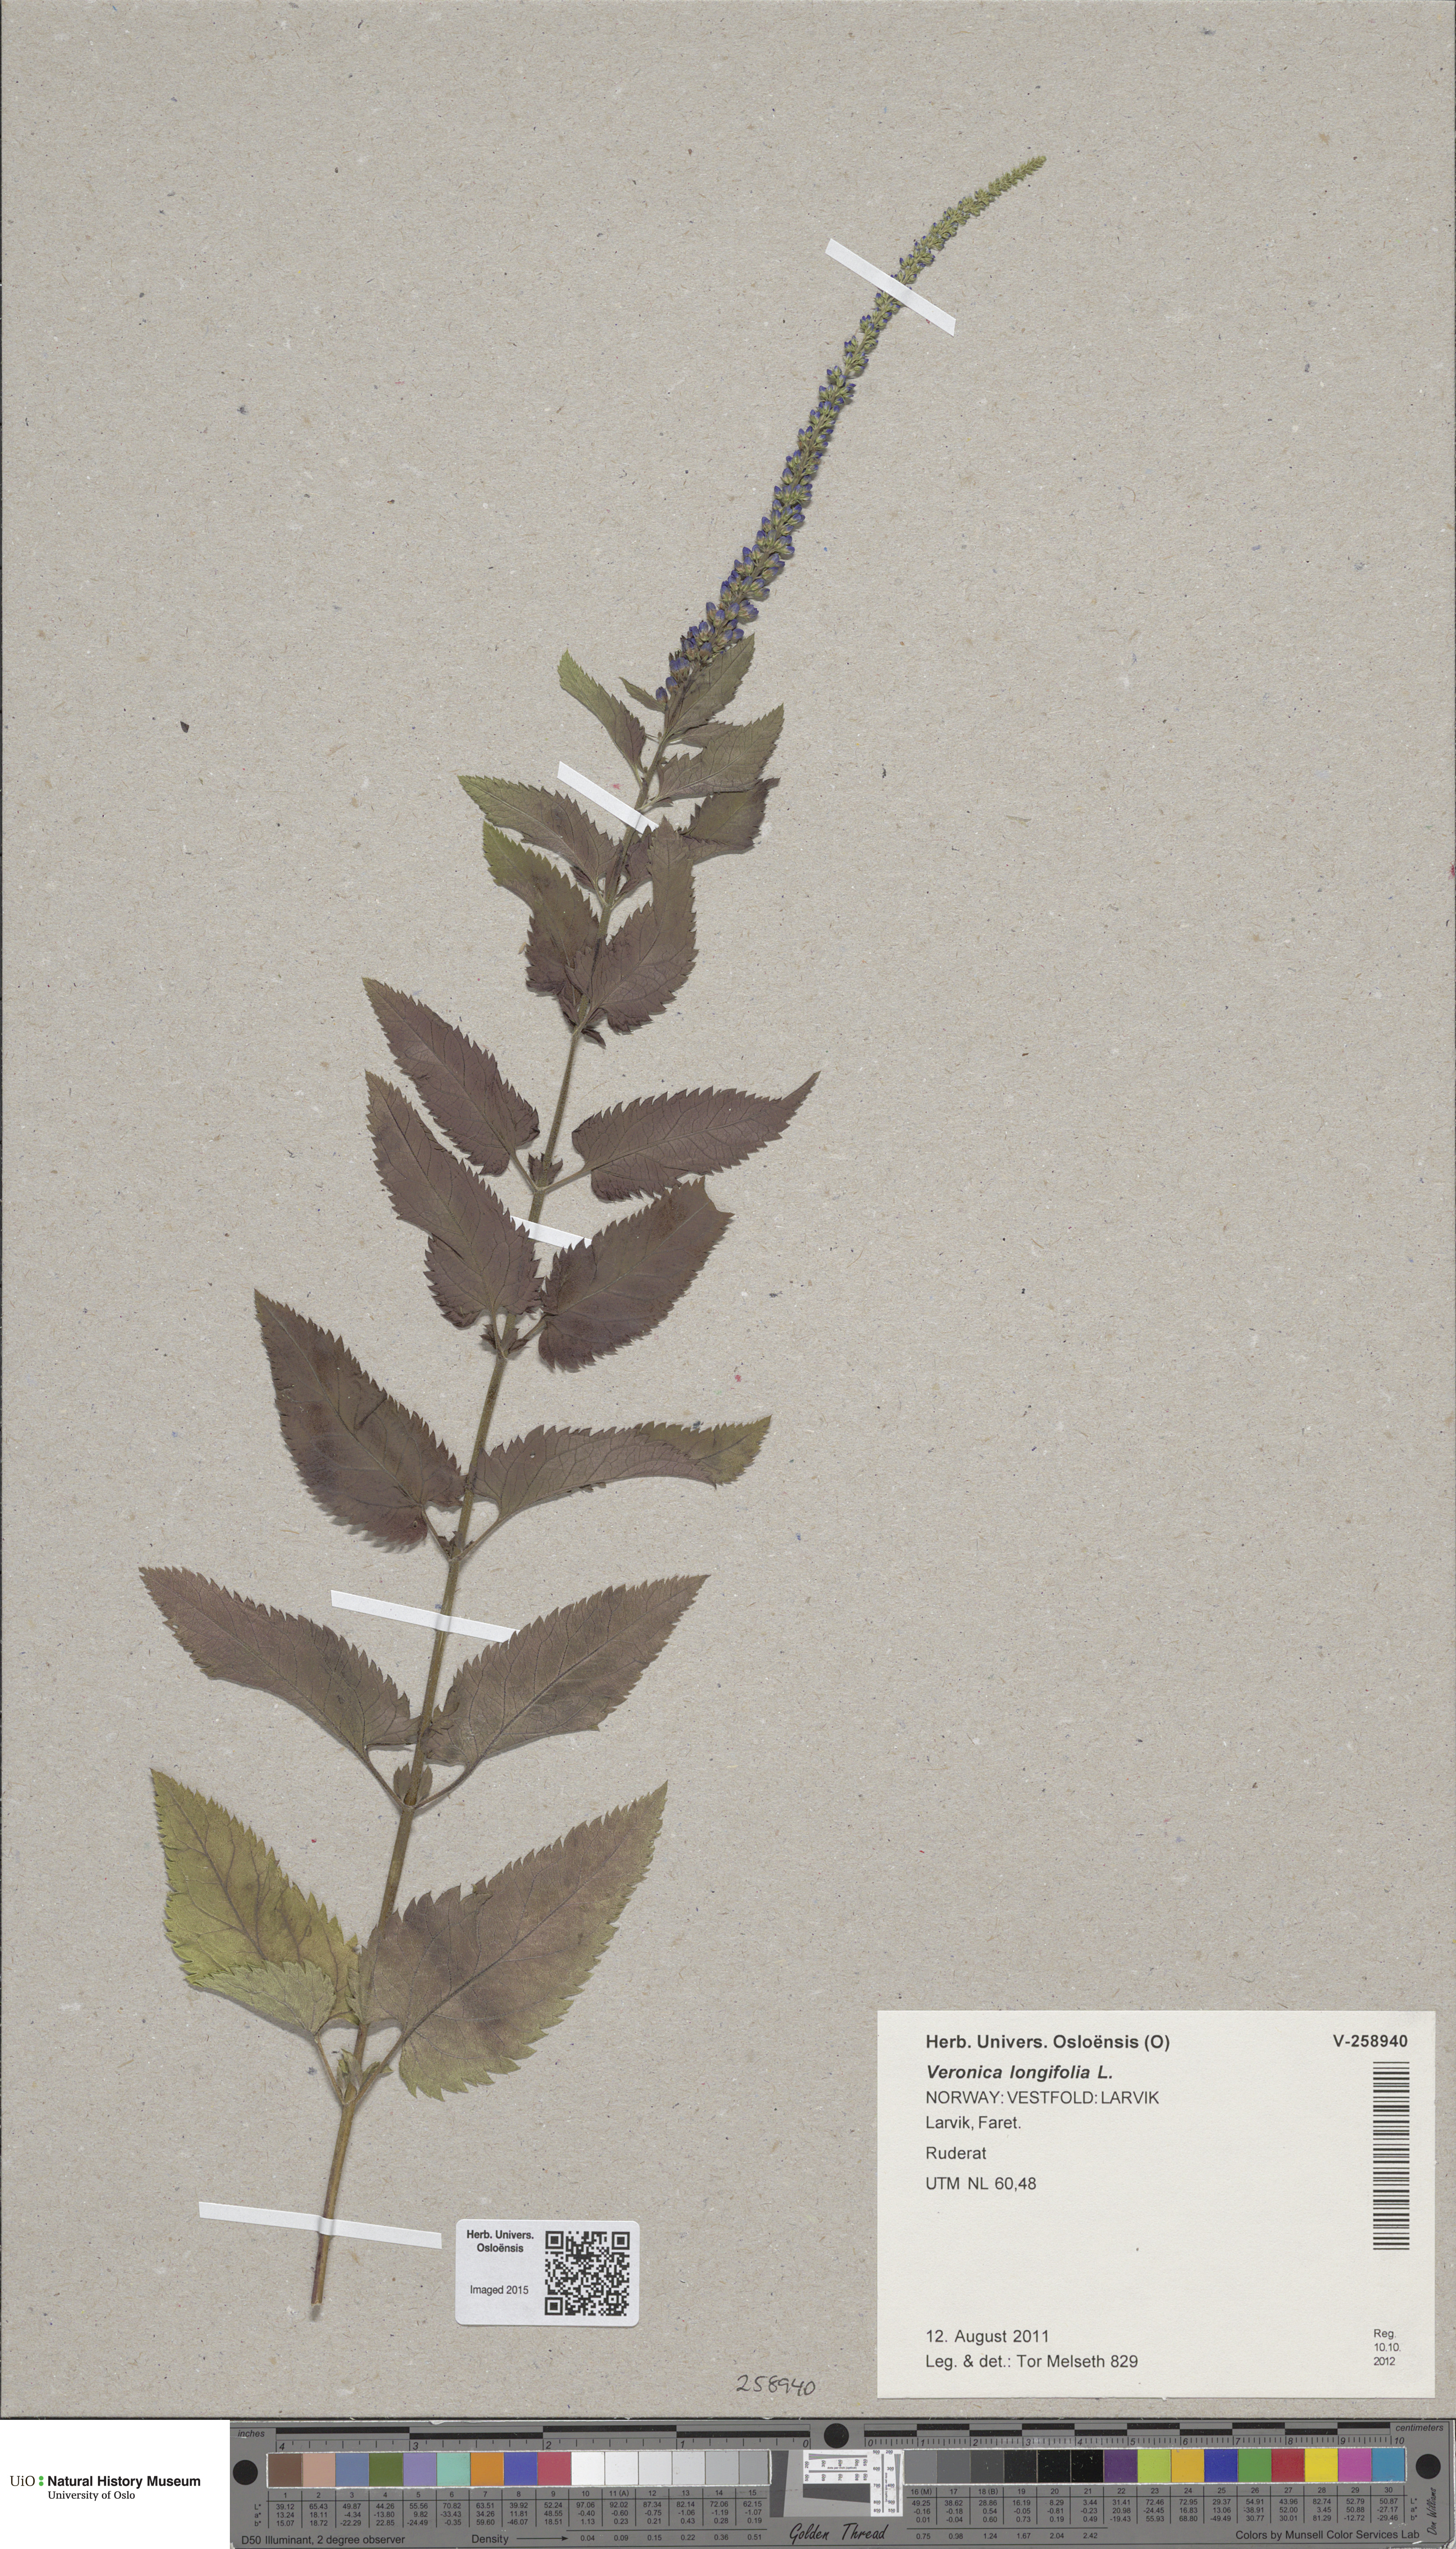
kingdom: Plantae
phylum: Tracheophyta
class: Magnoliopsida
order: Lamiales
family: Plantaginaceae
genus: Veronica
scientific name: Veronica longifolia
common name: Garden speedwell
